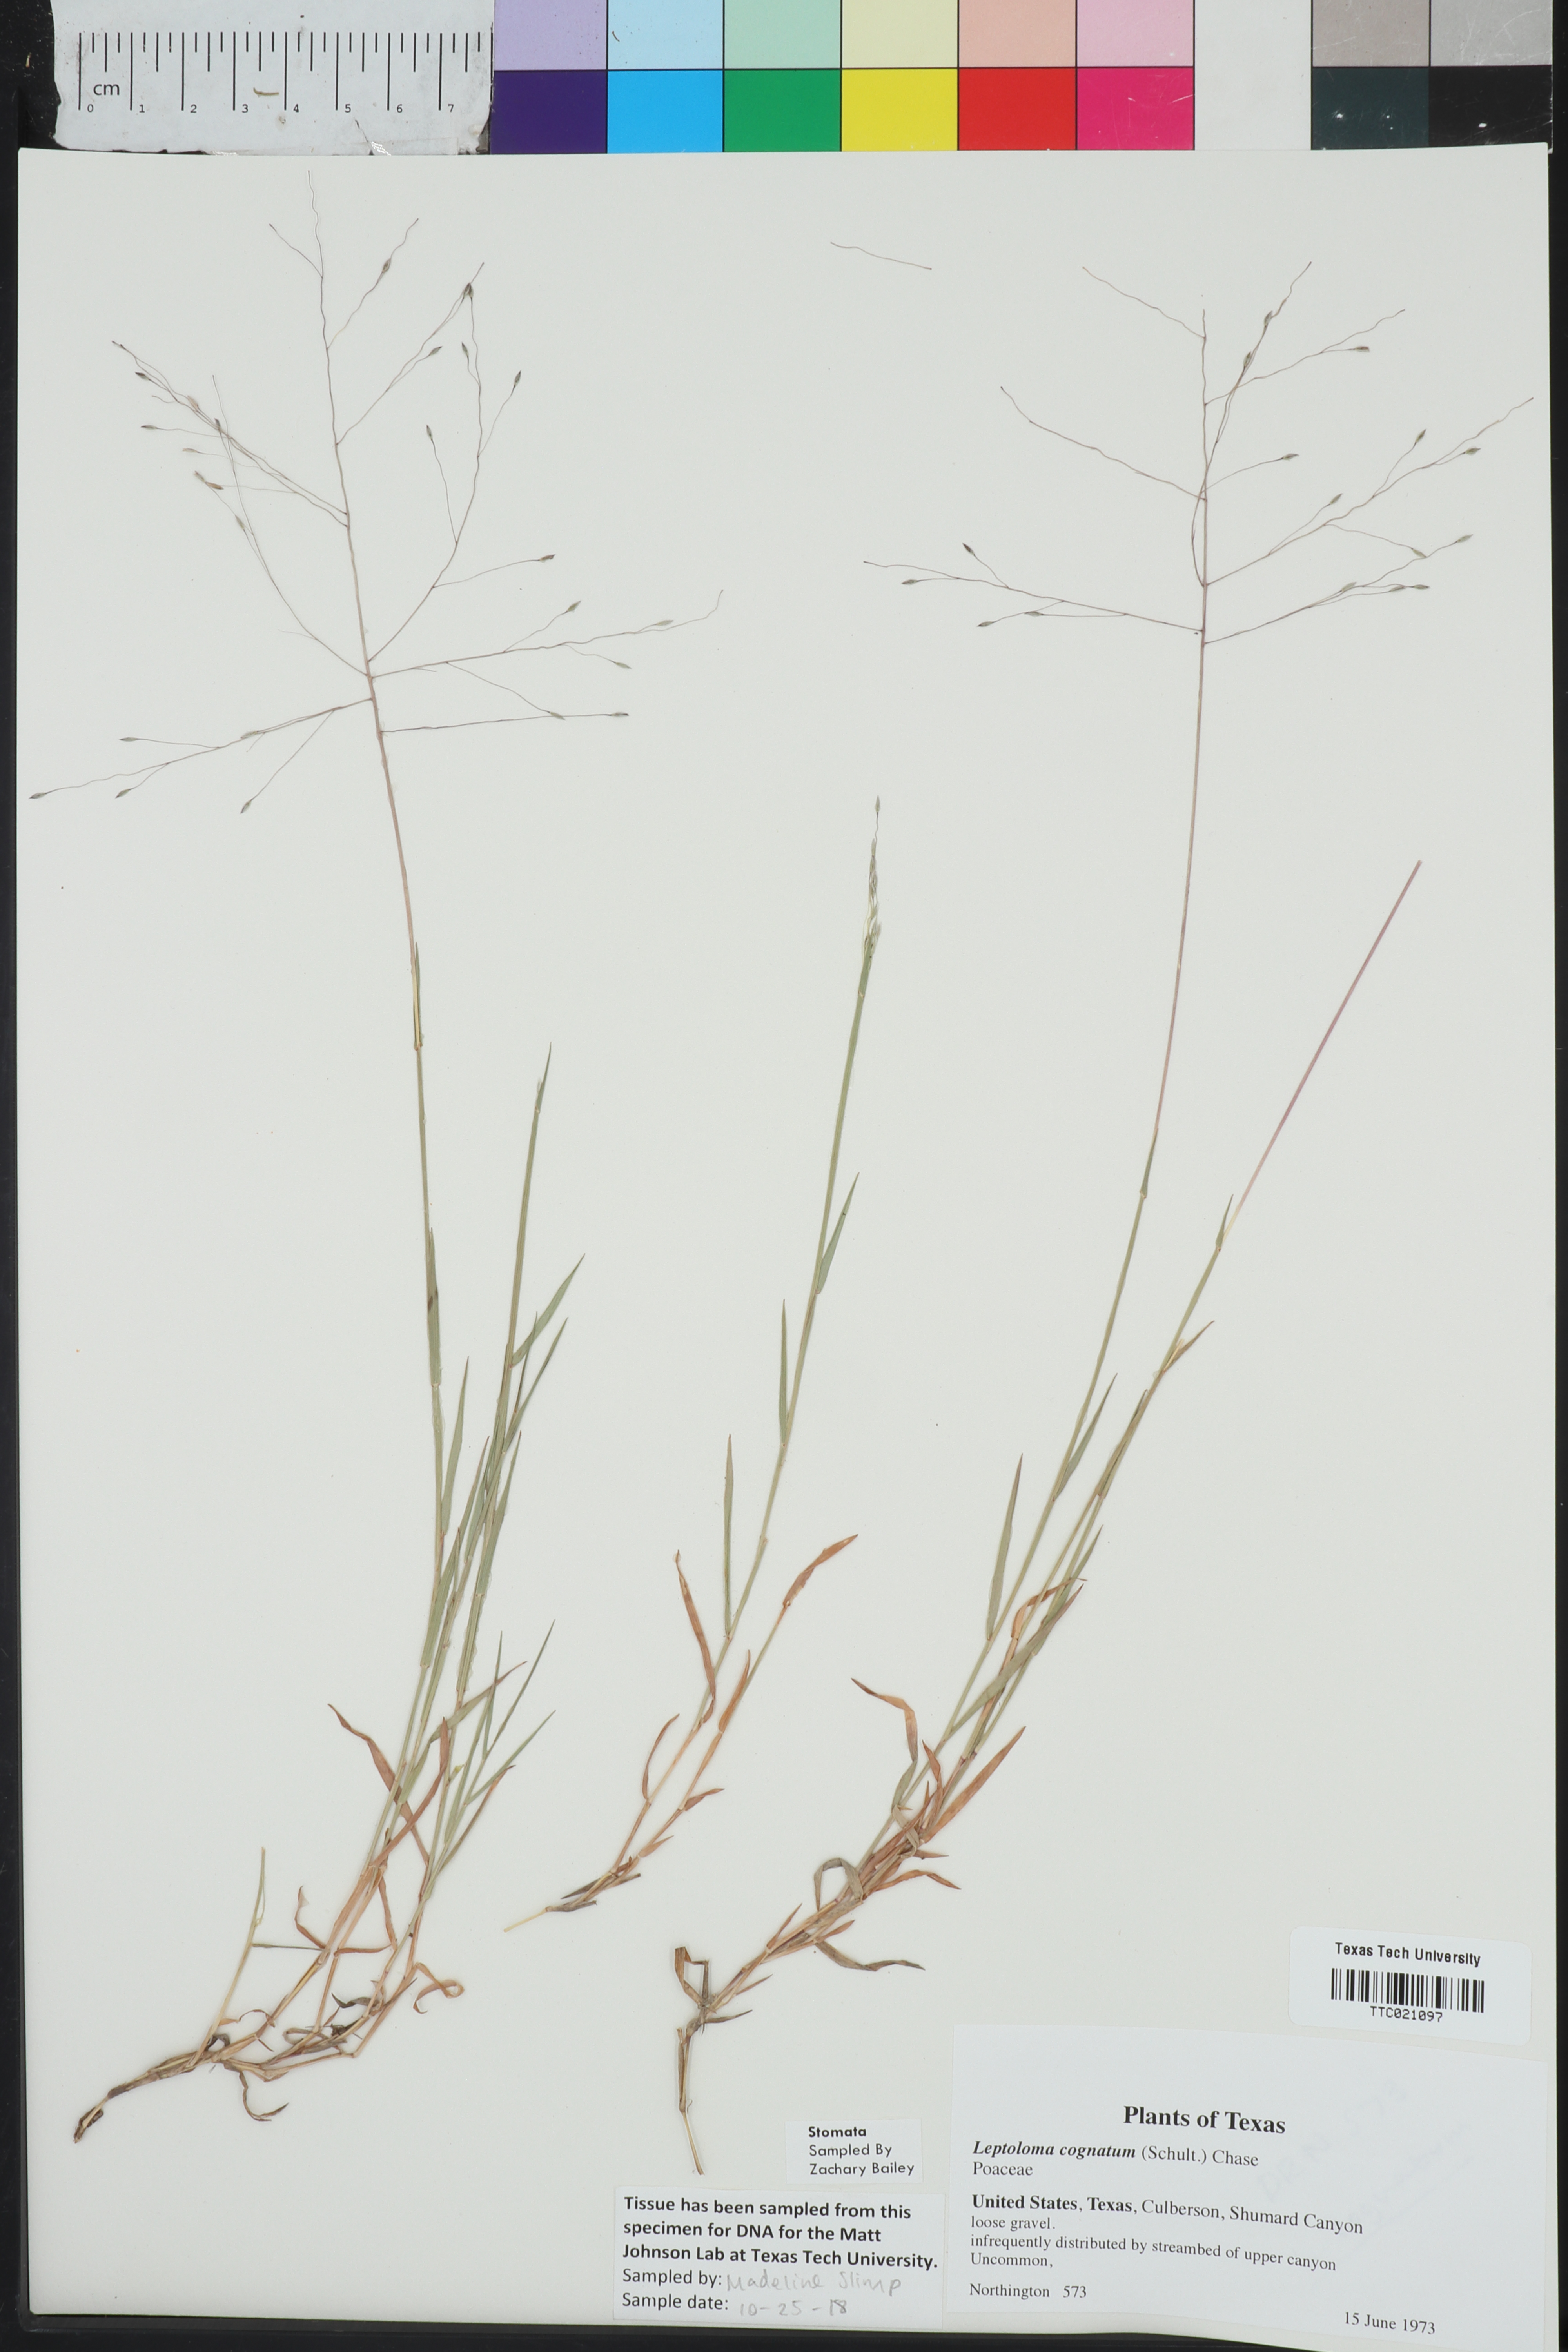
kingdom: Plantae
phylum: Tracheophyta
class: Liliopsida
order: Poales
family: Poaceae
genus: Digitaria
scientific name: Digitaria cognata
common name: Fall witchgrass
